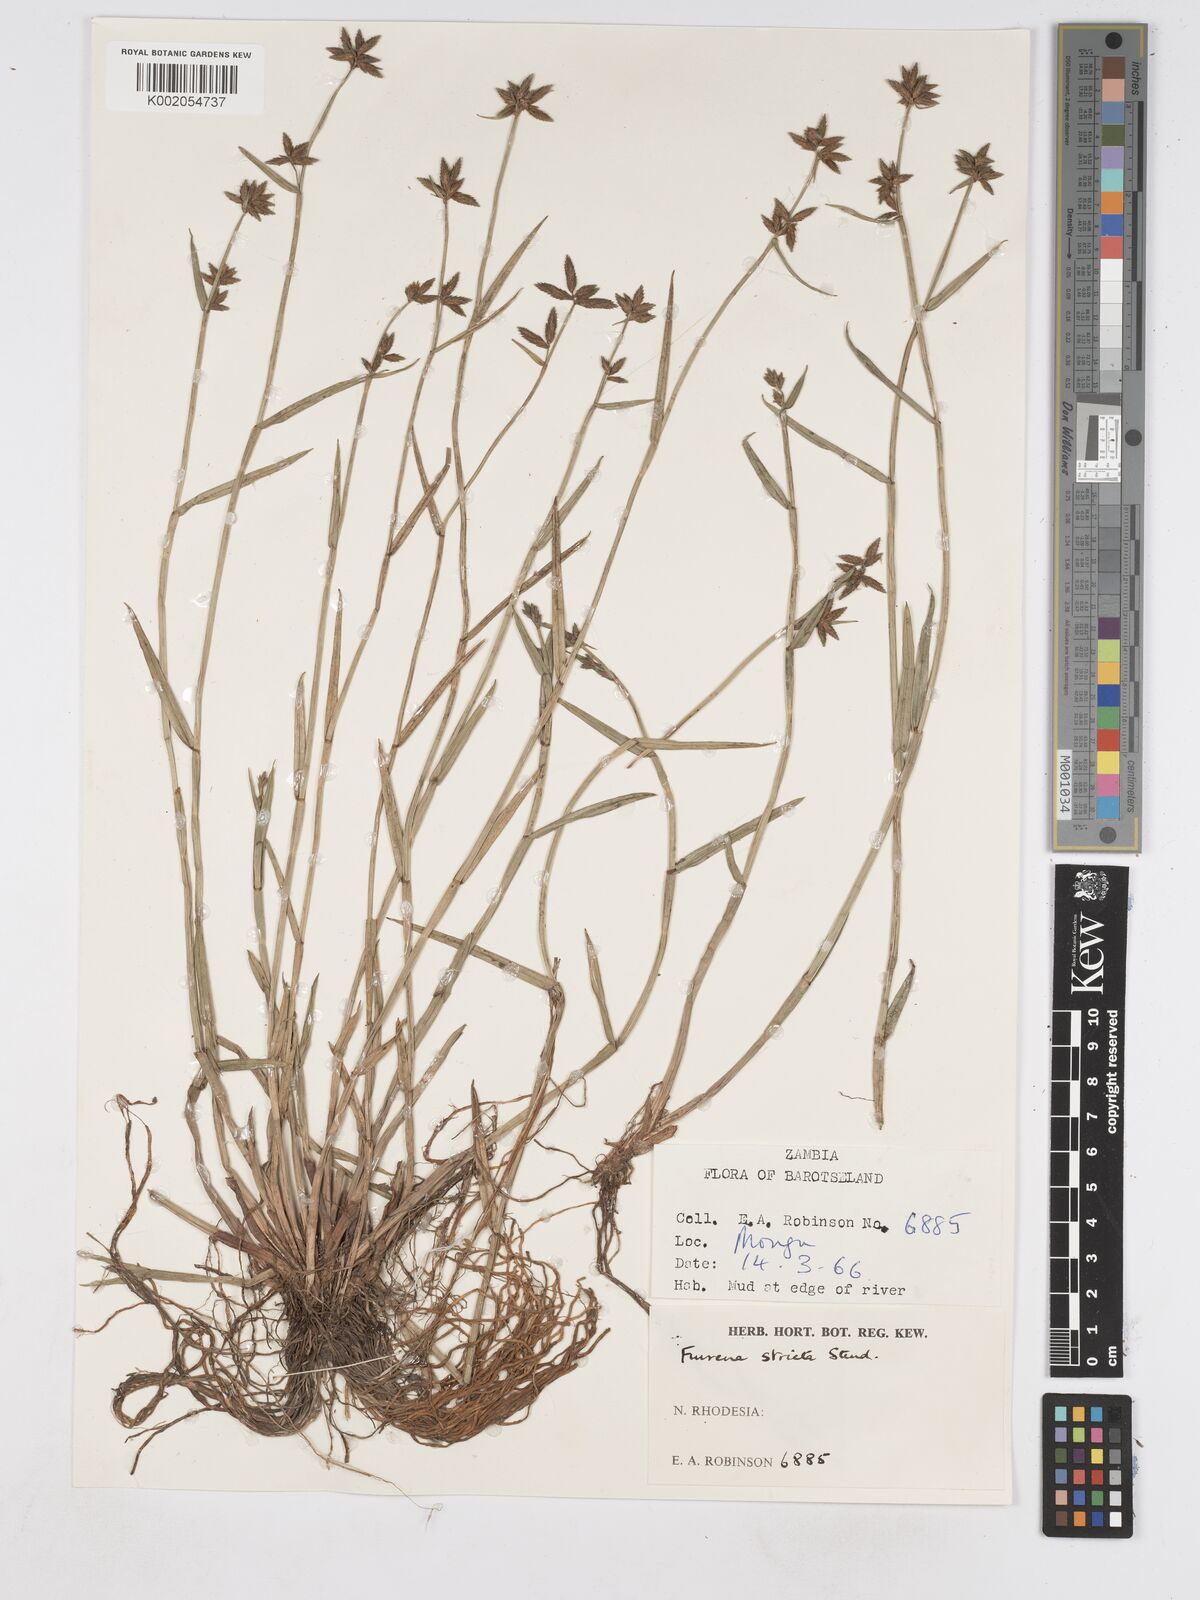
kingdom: Plantae
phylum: Tracheophyta
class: Liliopsida
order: Poales
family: Cyperaceae
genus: Fuirena
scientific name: Fuirena stricta
